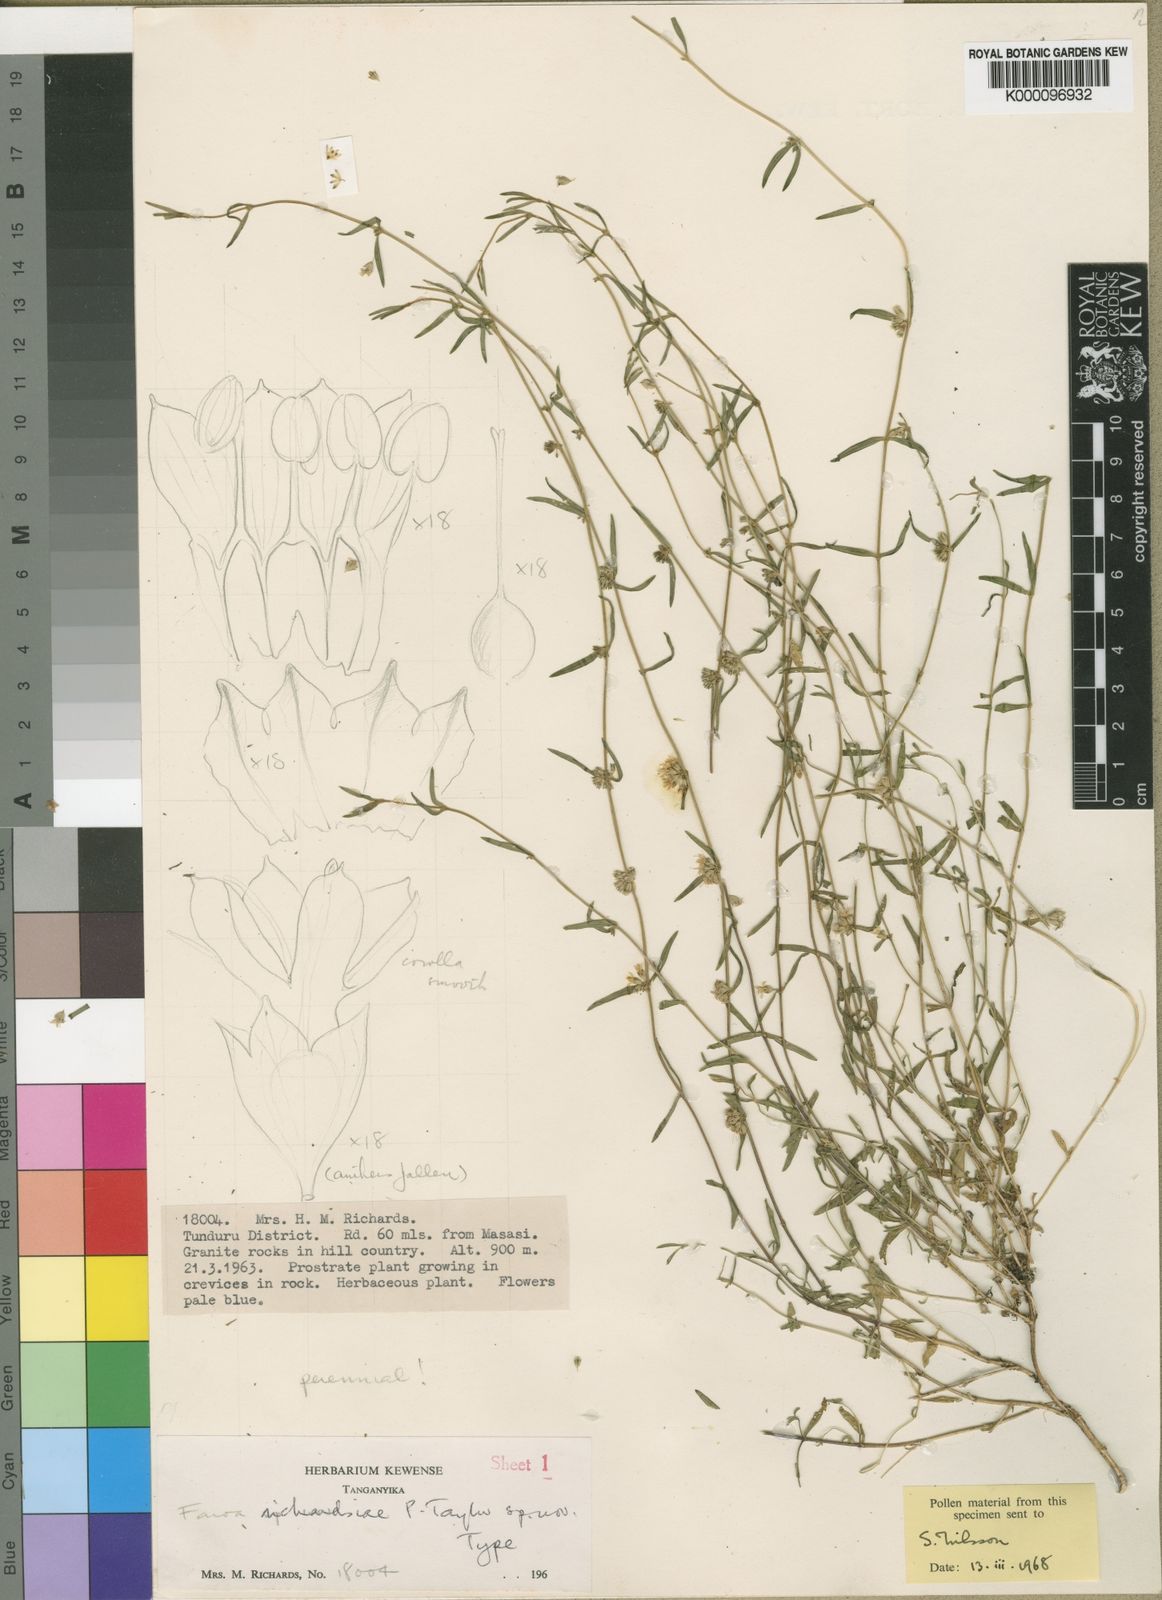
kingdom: Plantae
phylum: Tracheophyta
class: Magnoliopsida
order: Gentianales
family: Gentianaceae
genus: Faroa
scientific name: Faroa richardsiae
